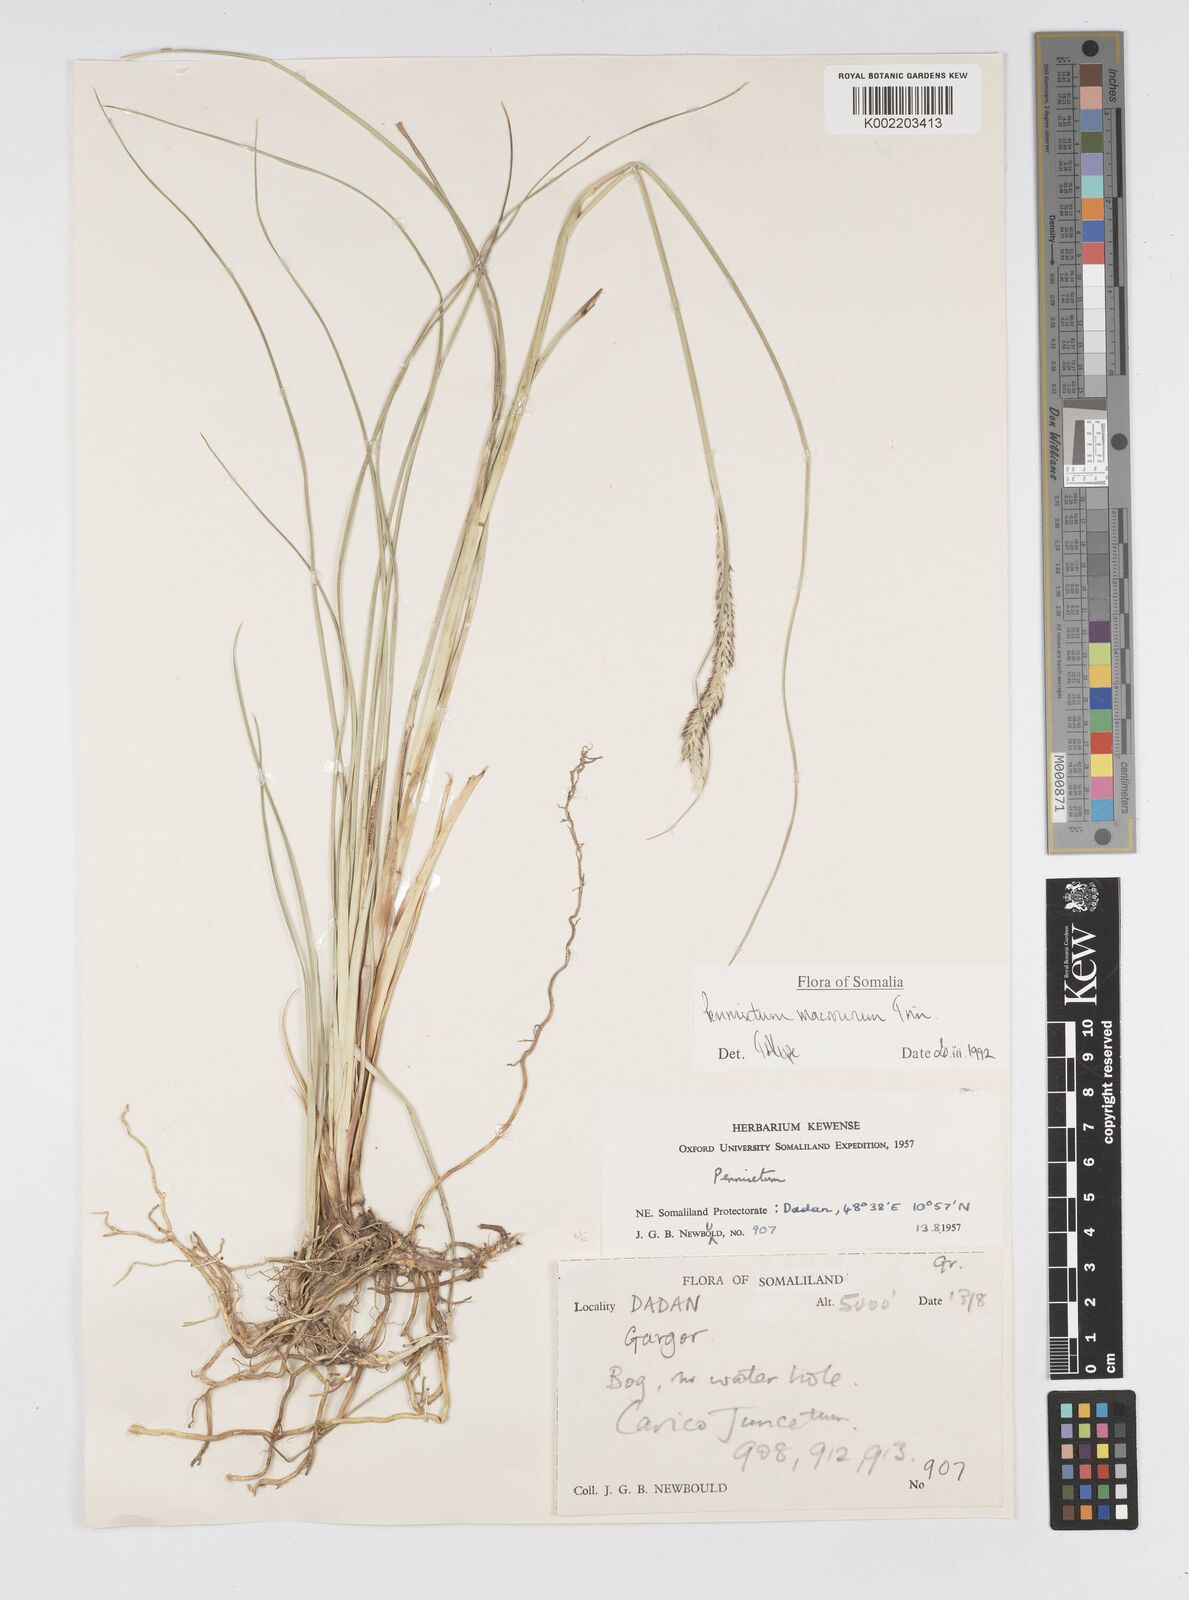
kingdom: Plantae
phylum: Tracheophyta
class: Liliopsida
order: Poales
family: Poaceae
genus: Cenchrus
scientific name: Cenchrus caudatus
